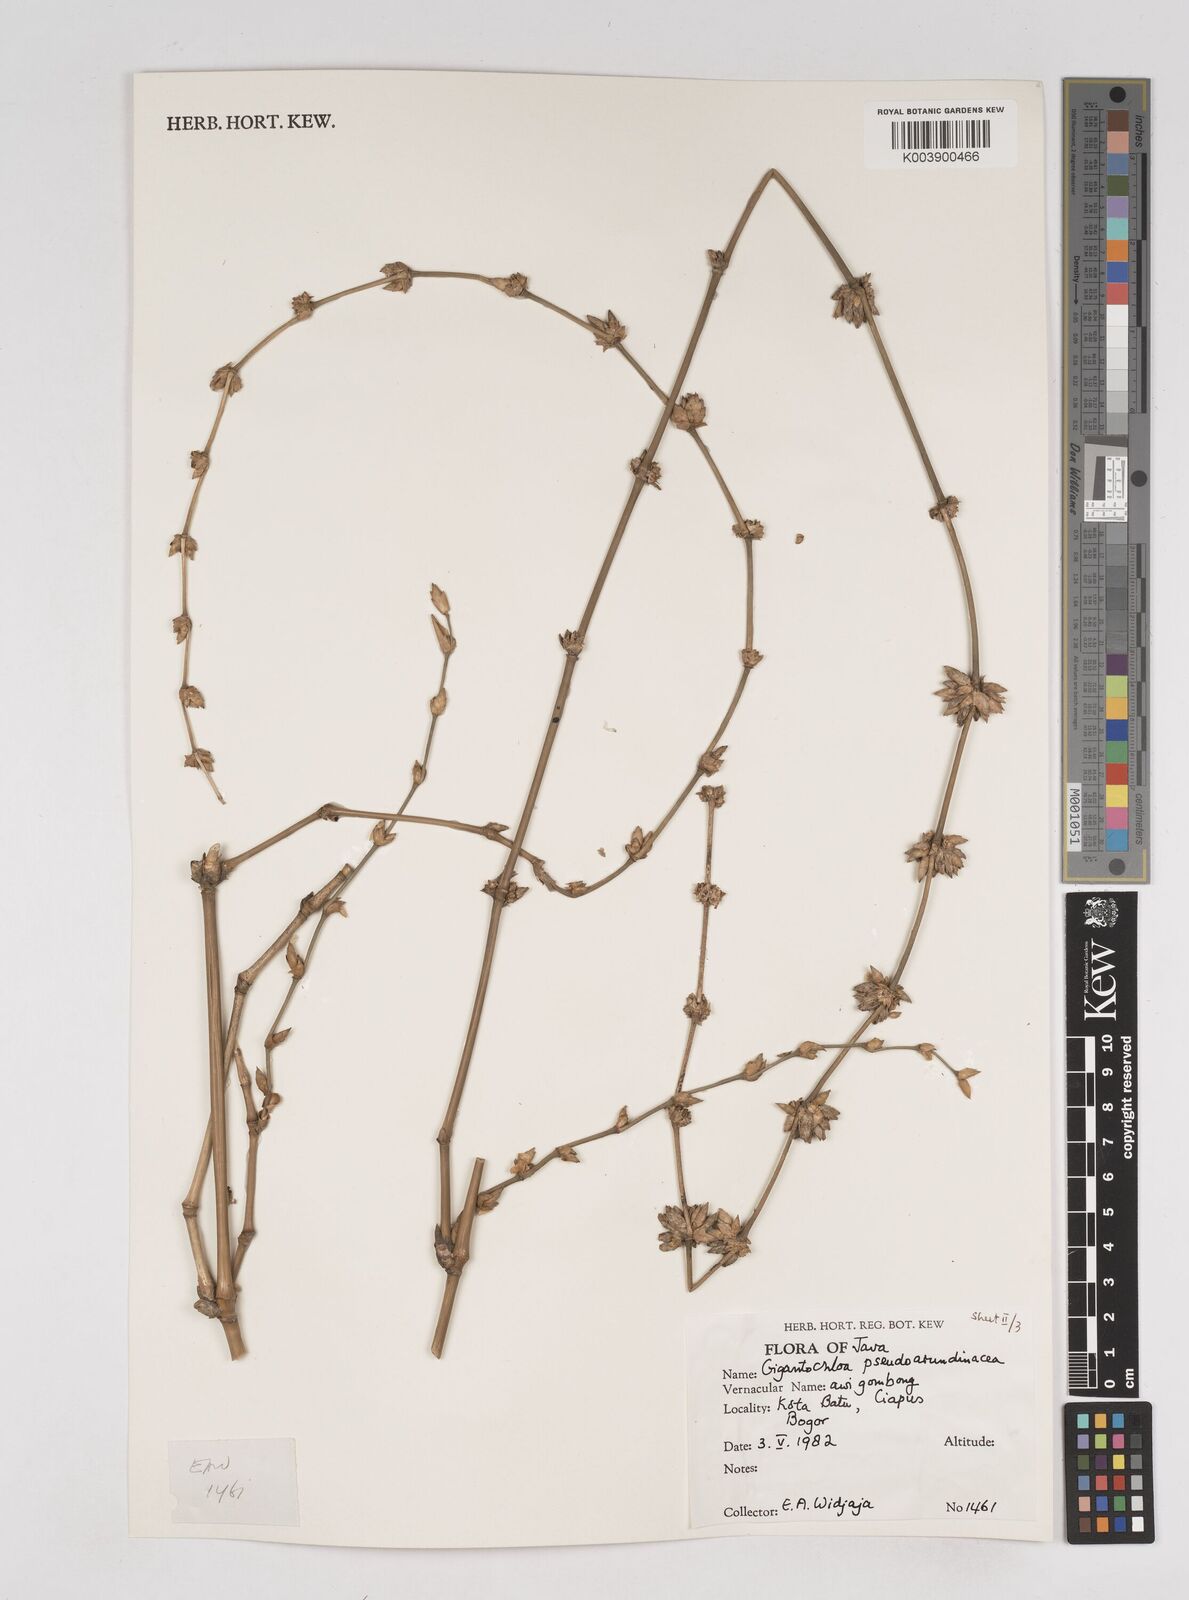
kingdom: Plantae
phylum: Tracheophyta
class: Liliopsida
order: Poales
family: Poaceae
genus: Gigantochloa
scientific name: Gigantochloa verticillata
